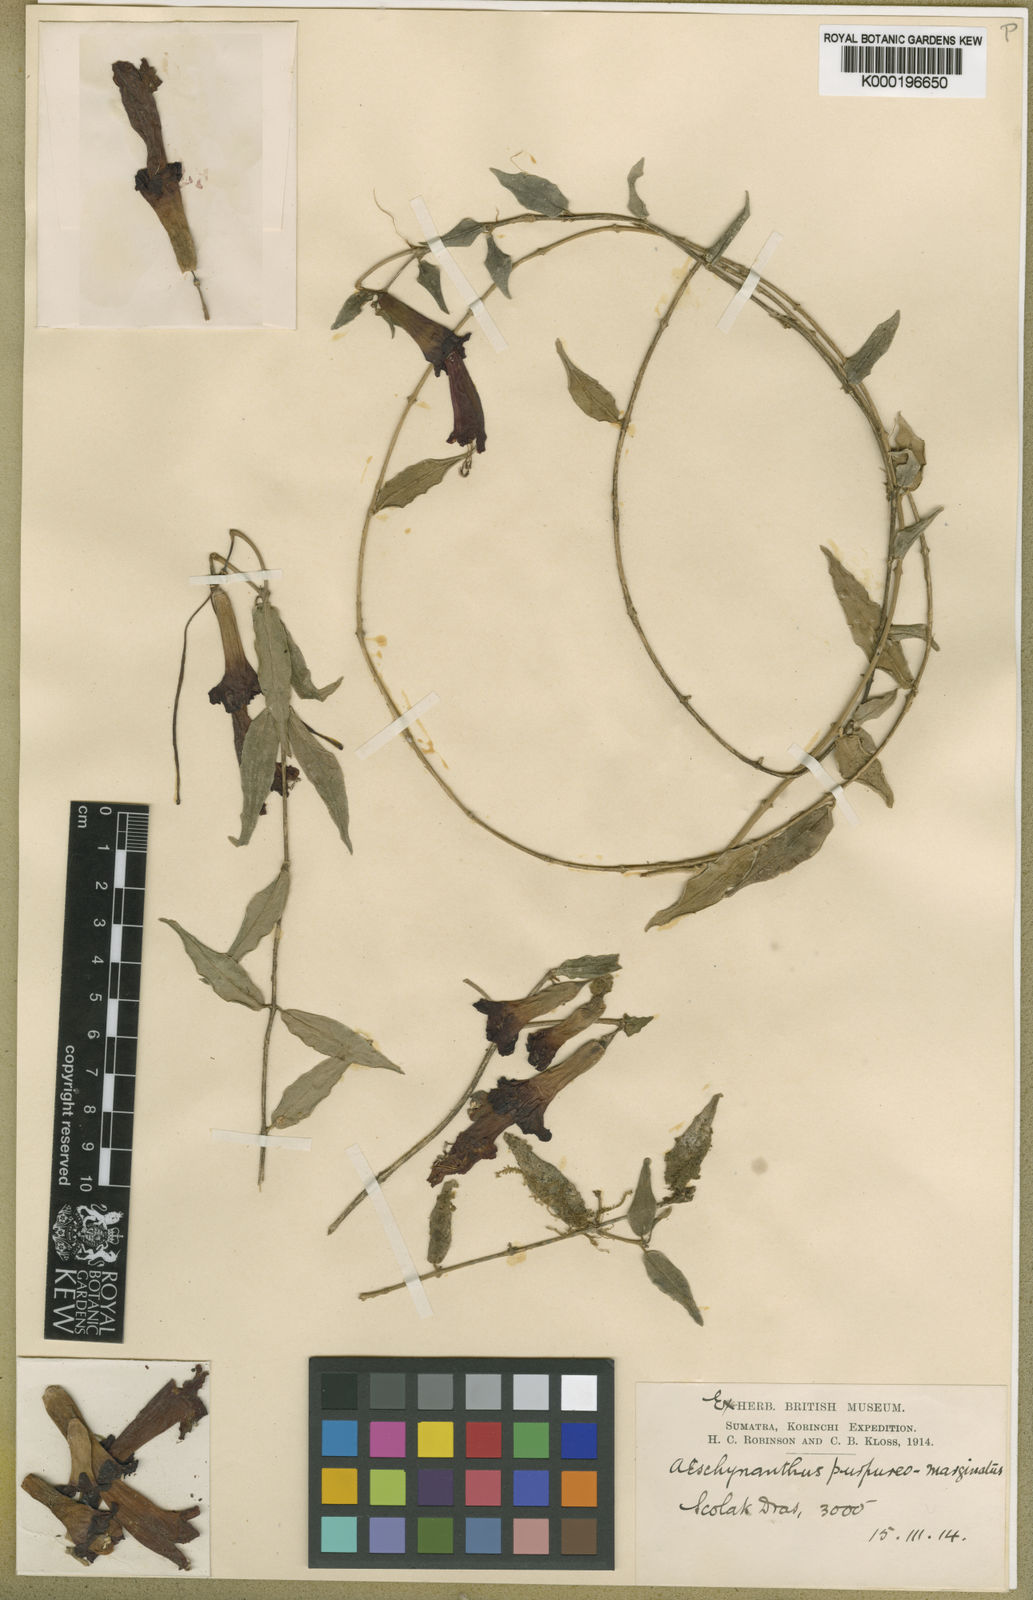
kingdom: Plantae
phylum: Tracheophyta
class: Magnoliopsida
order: Lamiales
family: Gesneriaceae
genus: Aeschynanthus
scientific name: Aeschynanthus
